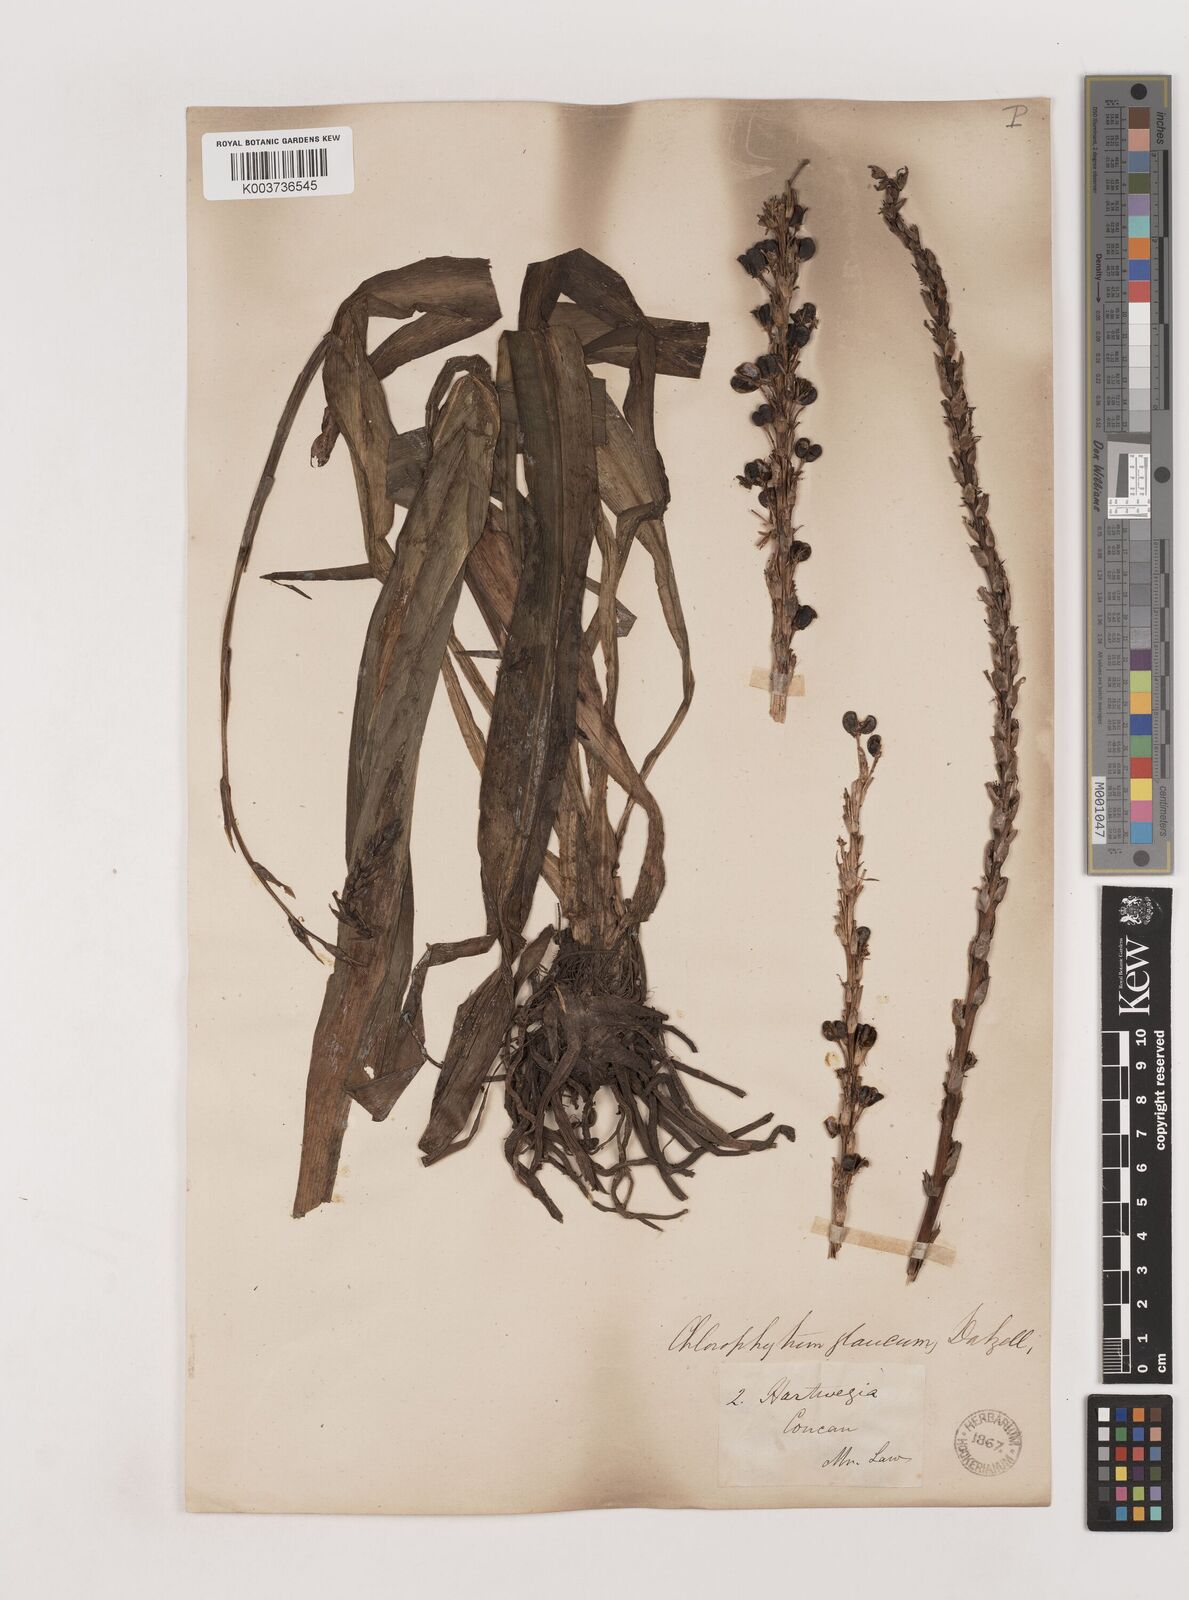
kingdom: Plantae
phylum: Tracheophyta
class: Liliopsida
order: Asparagales
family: Asparagaceae
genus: Chlorophytum
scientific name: Chlorophytum glaucum
